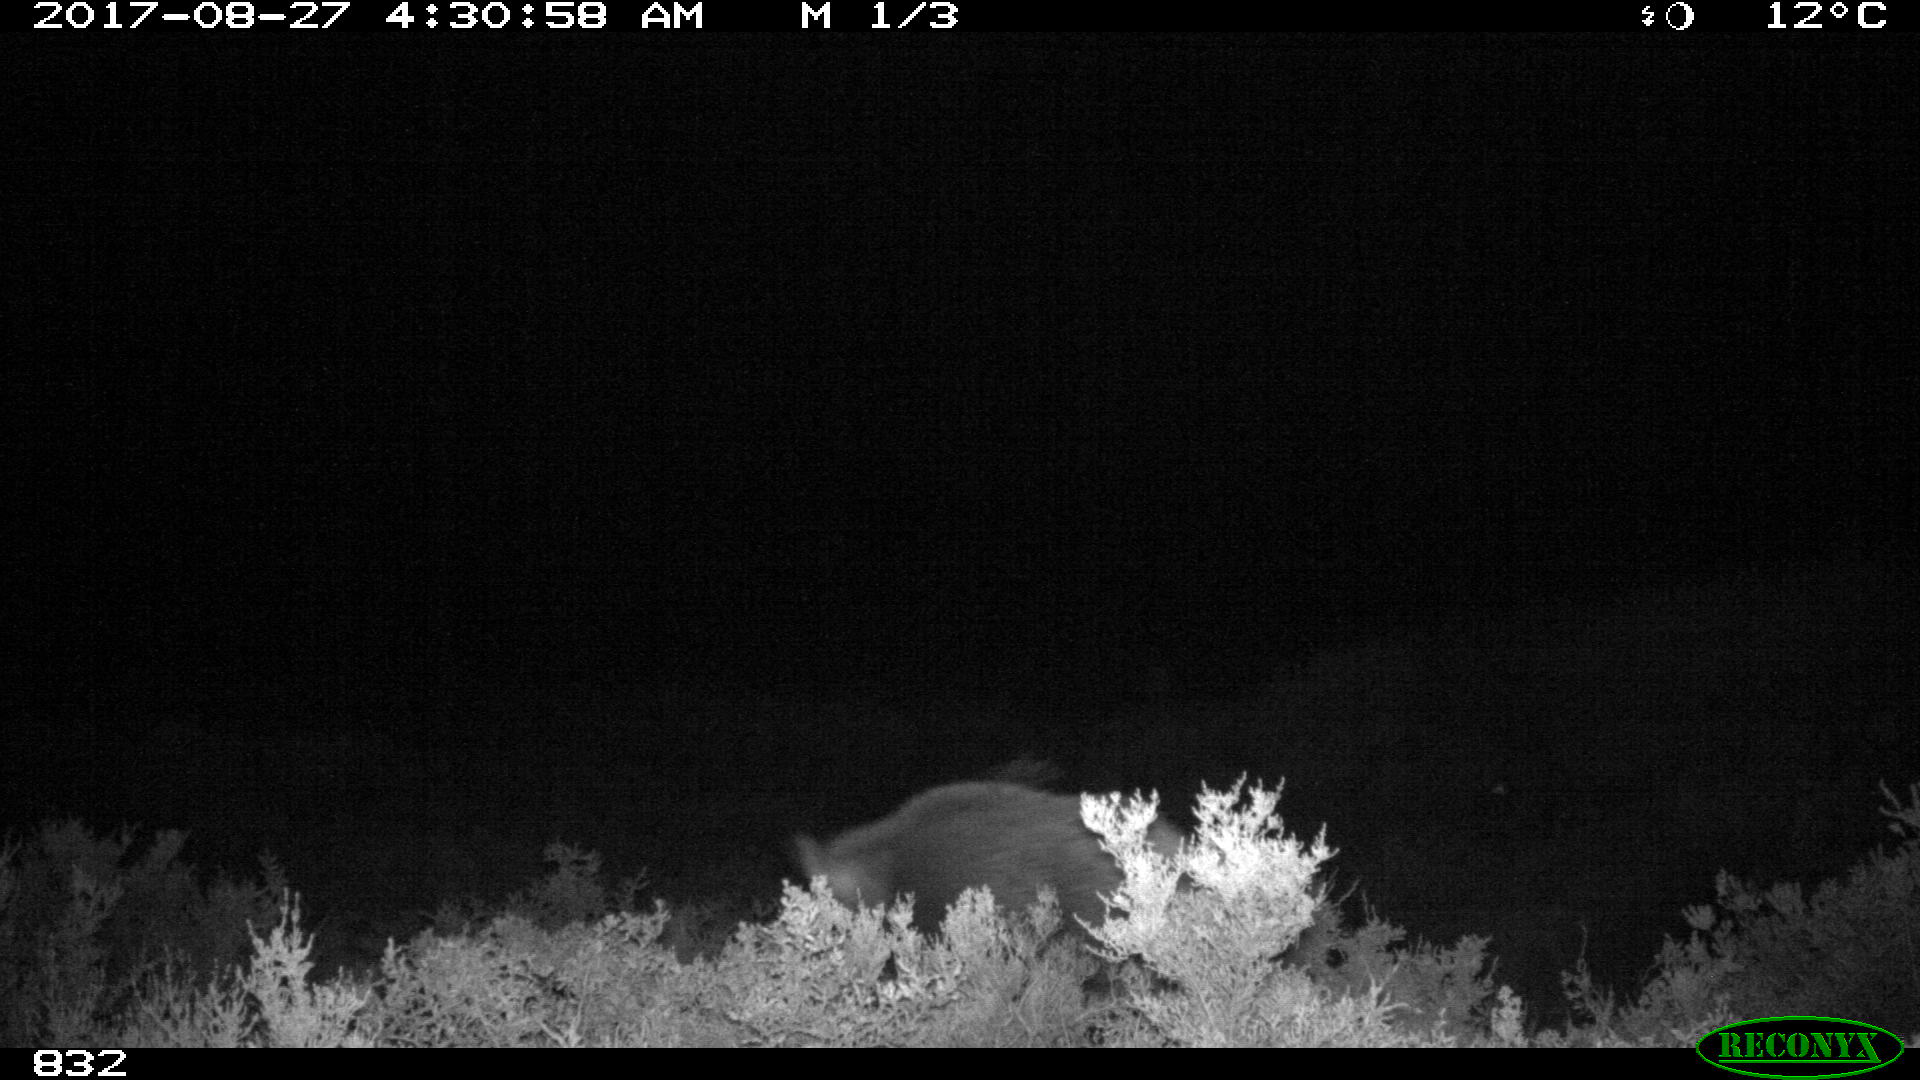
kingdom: Animalia
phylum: Chordata
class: Mammalia
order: Artiodactyla
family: Suidae
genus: Sus
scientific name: Sus scrofa
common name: Wild boar
